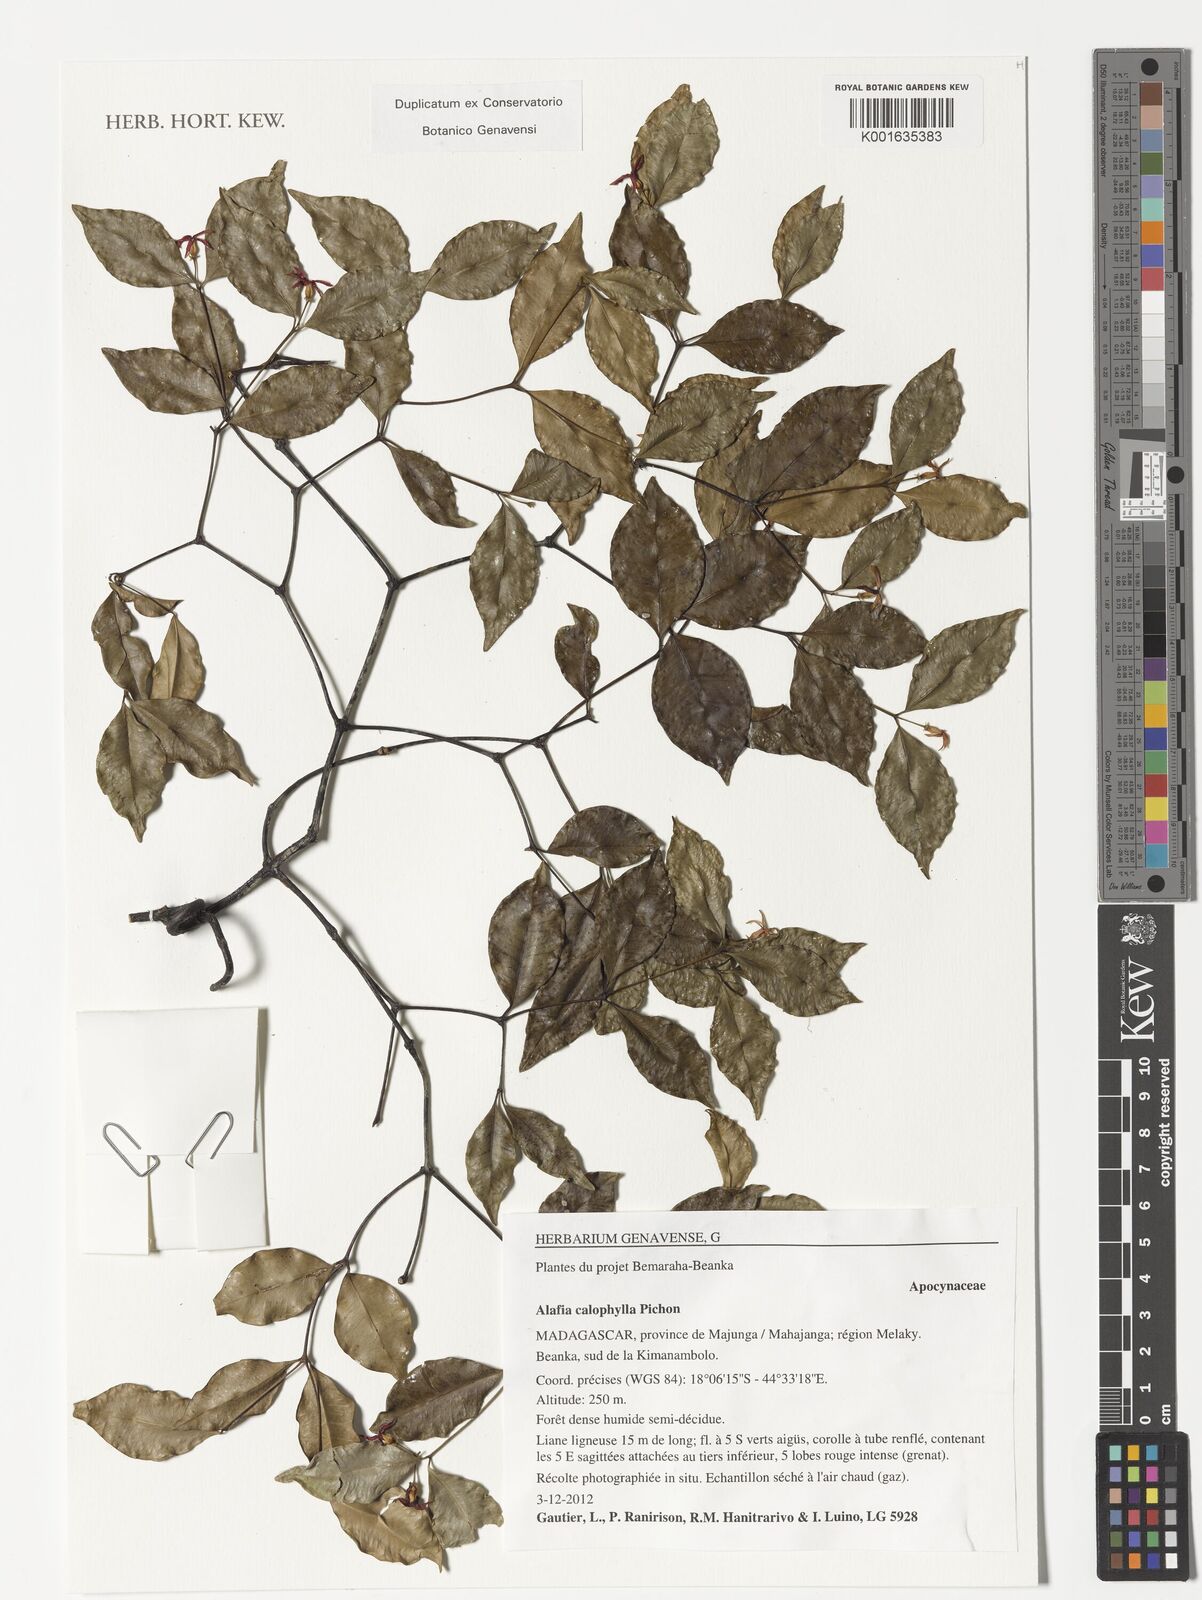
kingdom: Plantae
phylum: Tracheophyta
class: Magnoliopsida
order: Gentianales
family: Apocynaceae
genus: Alafia
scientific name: Alafia calophylla
